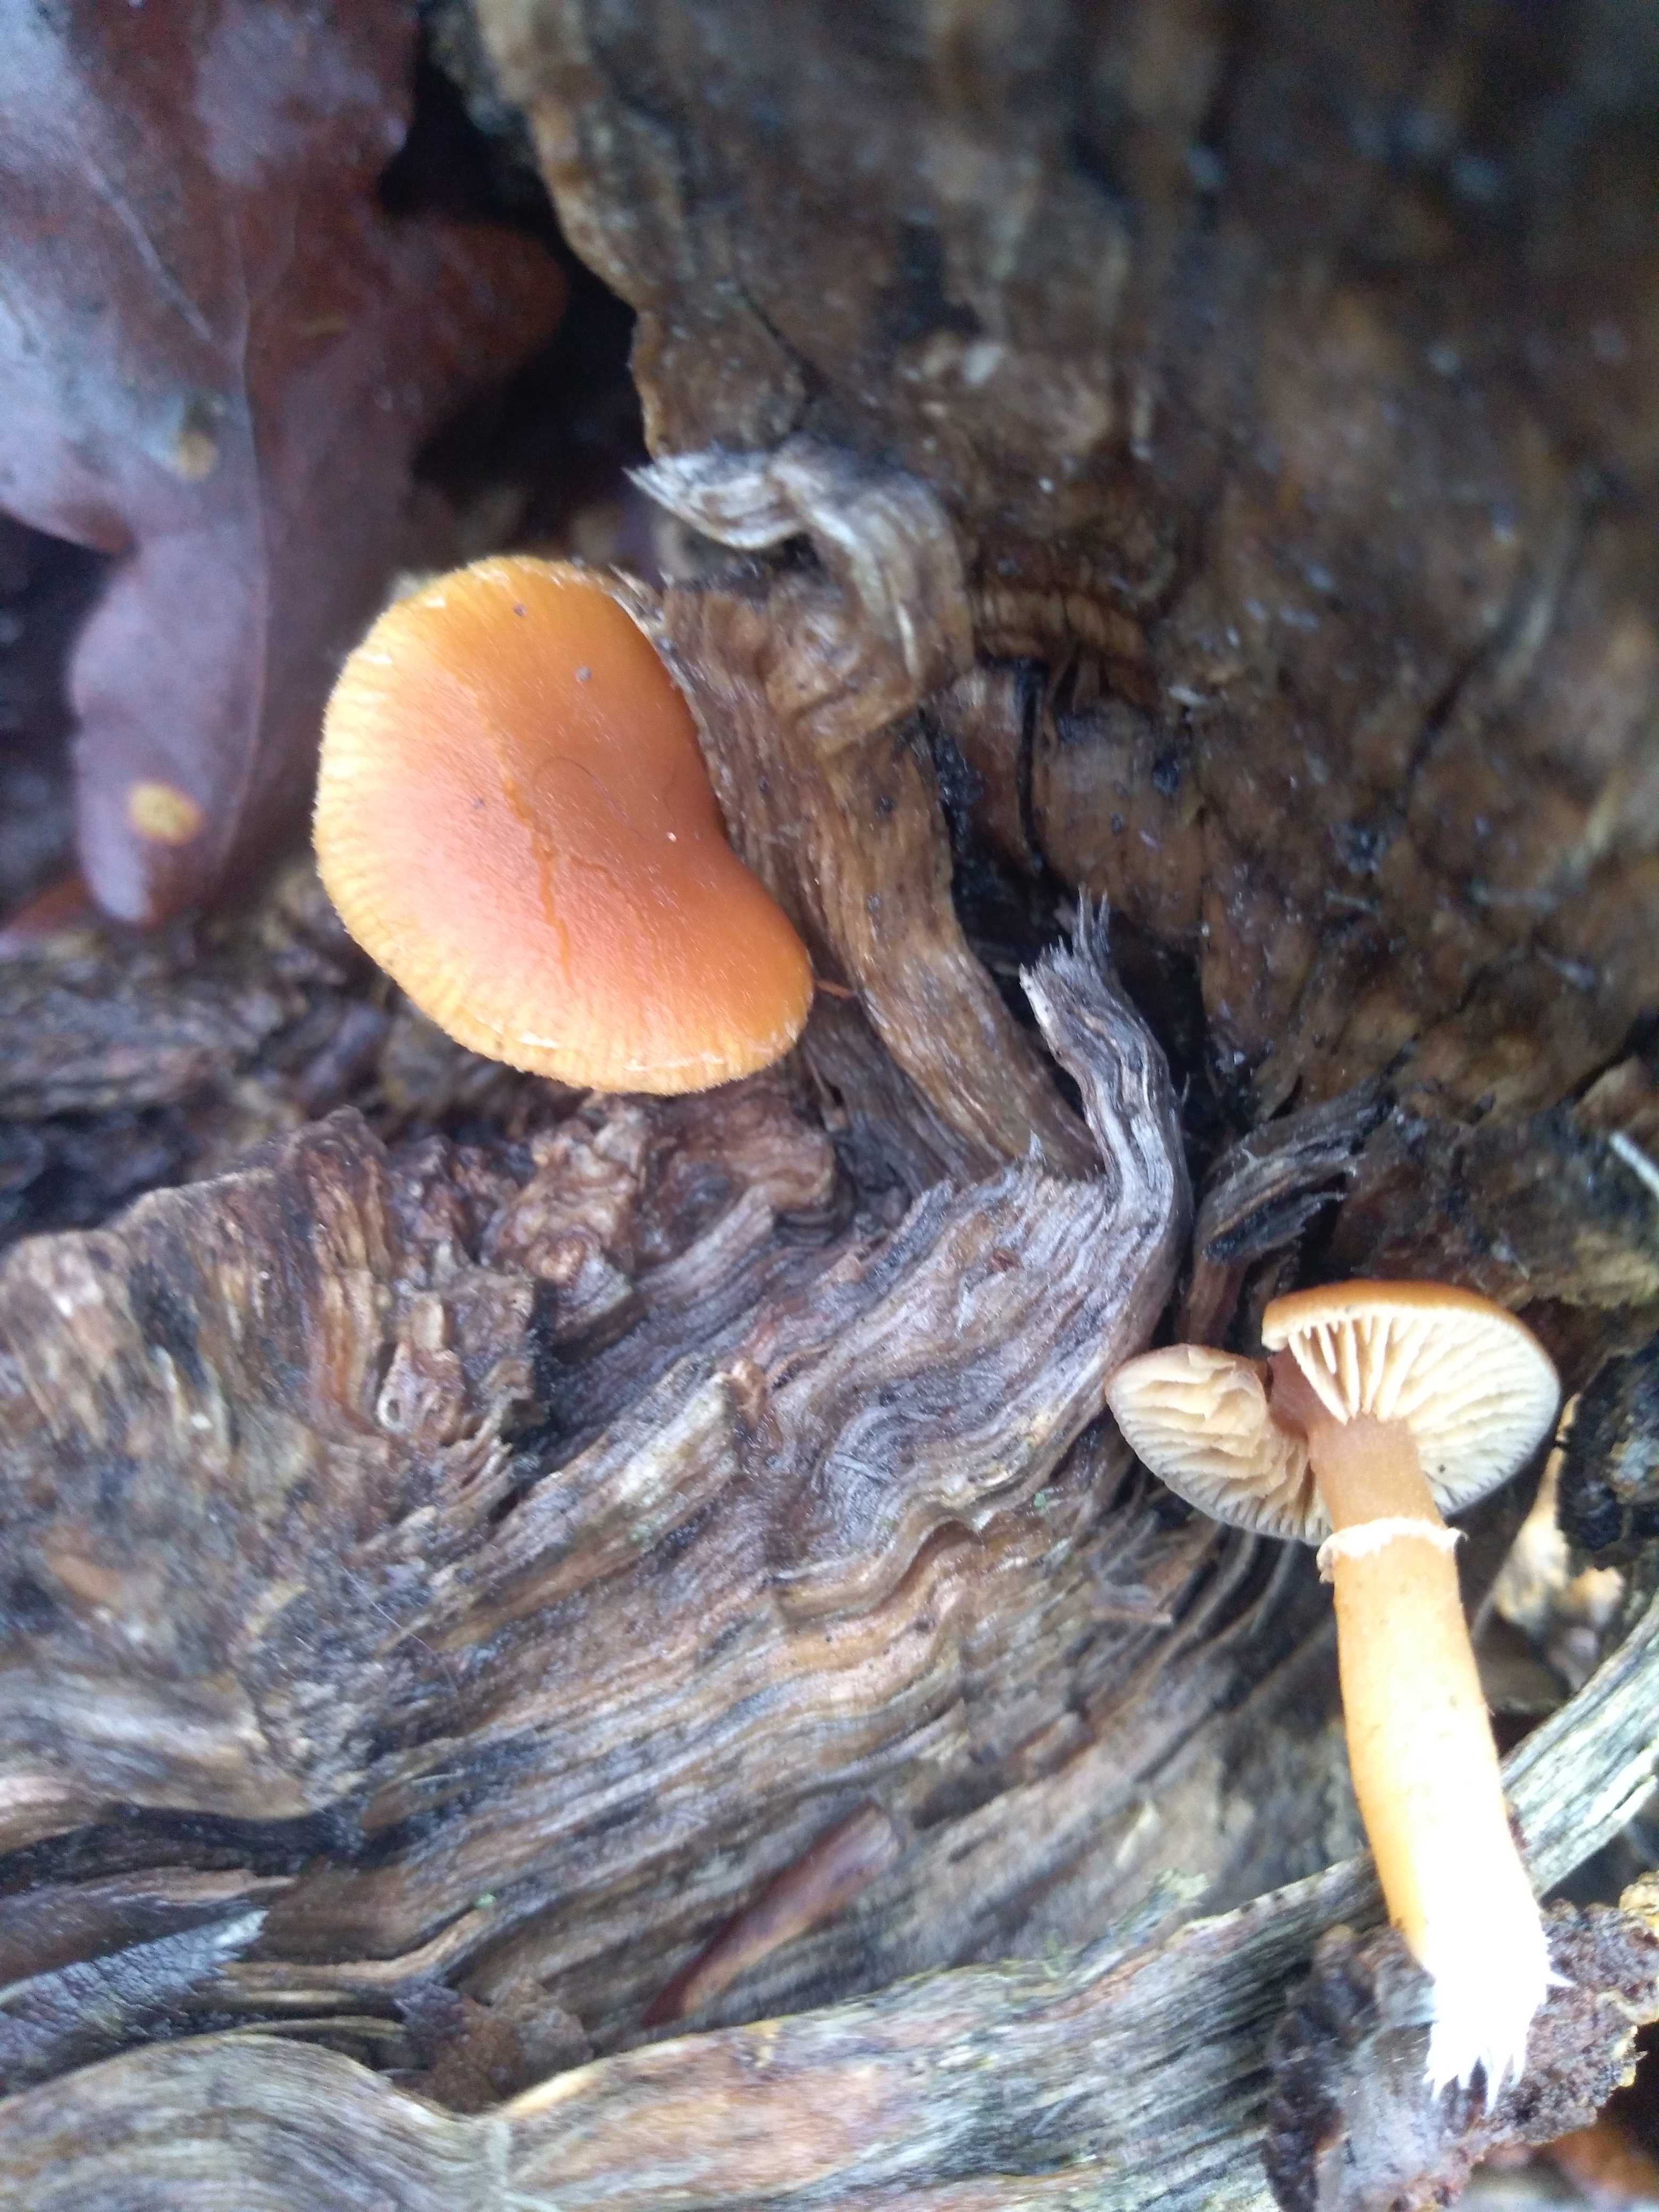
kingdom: Fungi
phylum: Basidiomycota
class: Agaricomycetes
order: Agaricales
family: Tubariaceae
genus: Tubaria
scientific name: Tubaria furfuracea
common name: kliddet fnughat
